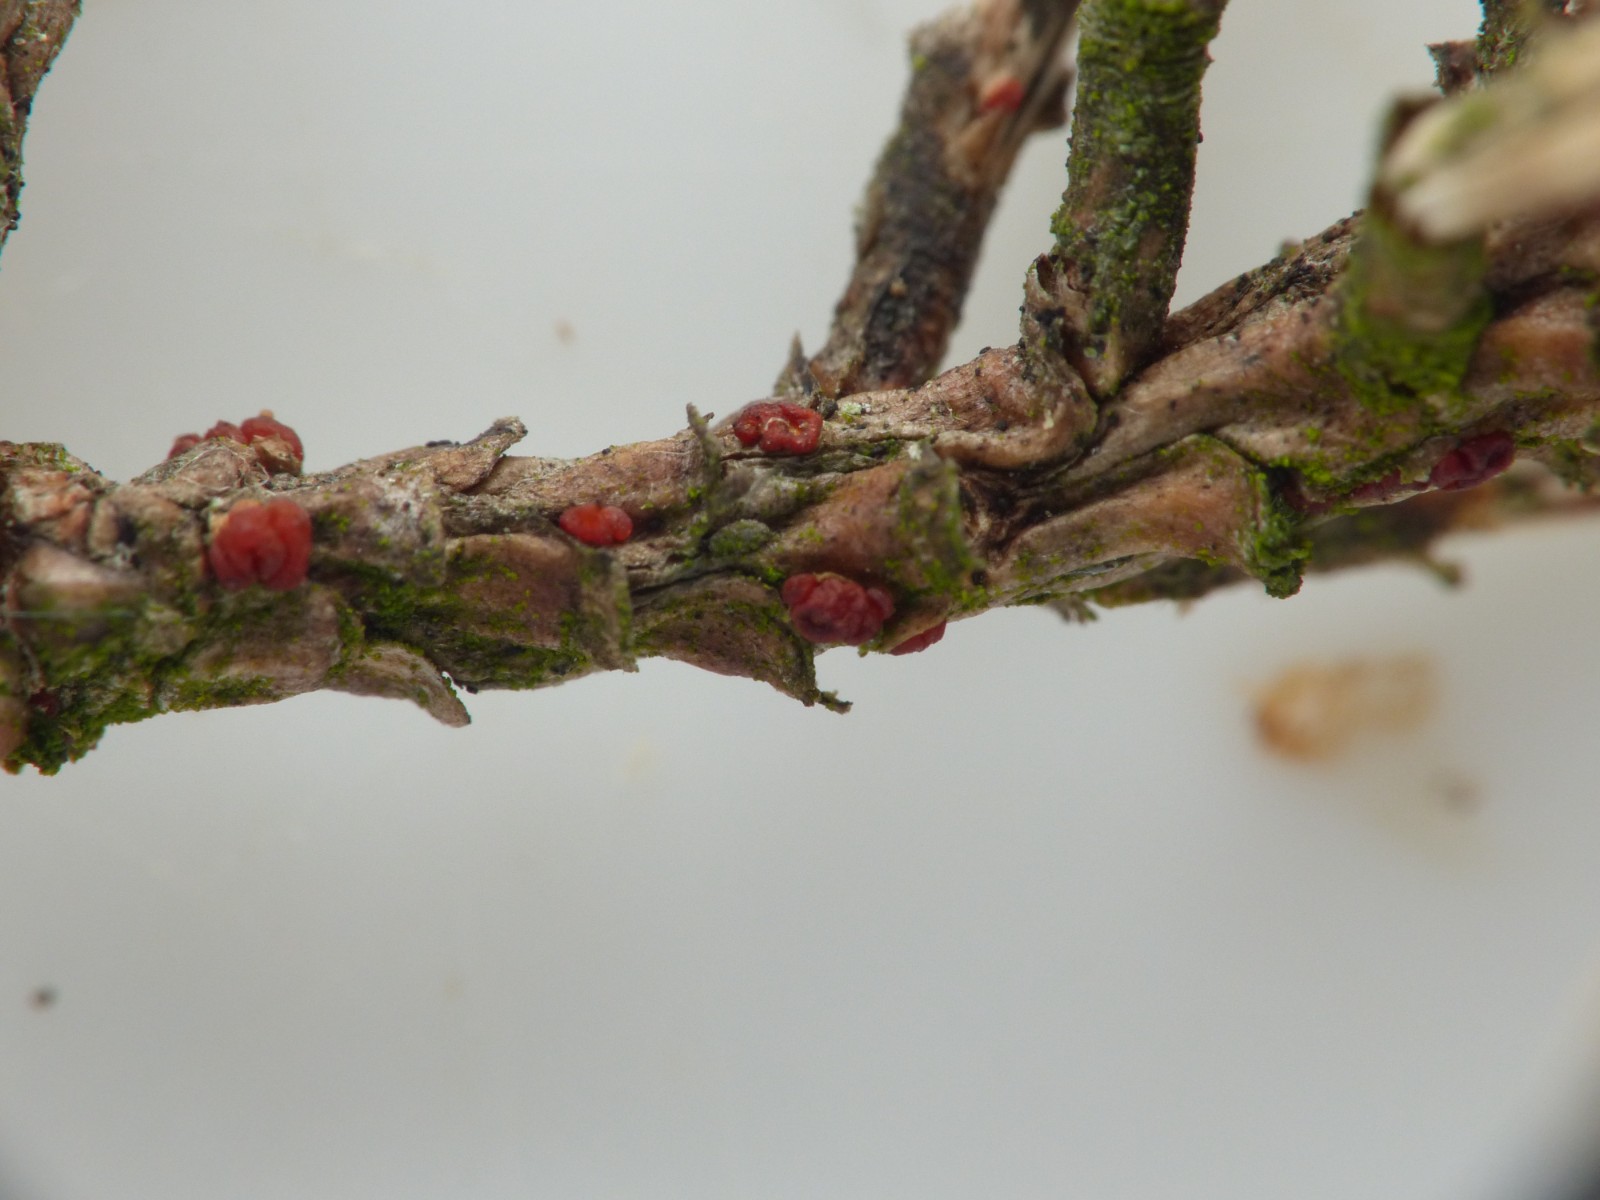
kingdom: Fungi
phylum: Ascomycota
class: Sordariomycetes
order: Hypocreales
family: Nectriaceae
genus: Corinectria
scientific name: Corinectria fuckeliana
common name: grankræft-cinnobersvamp
